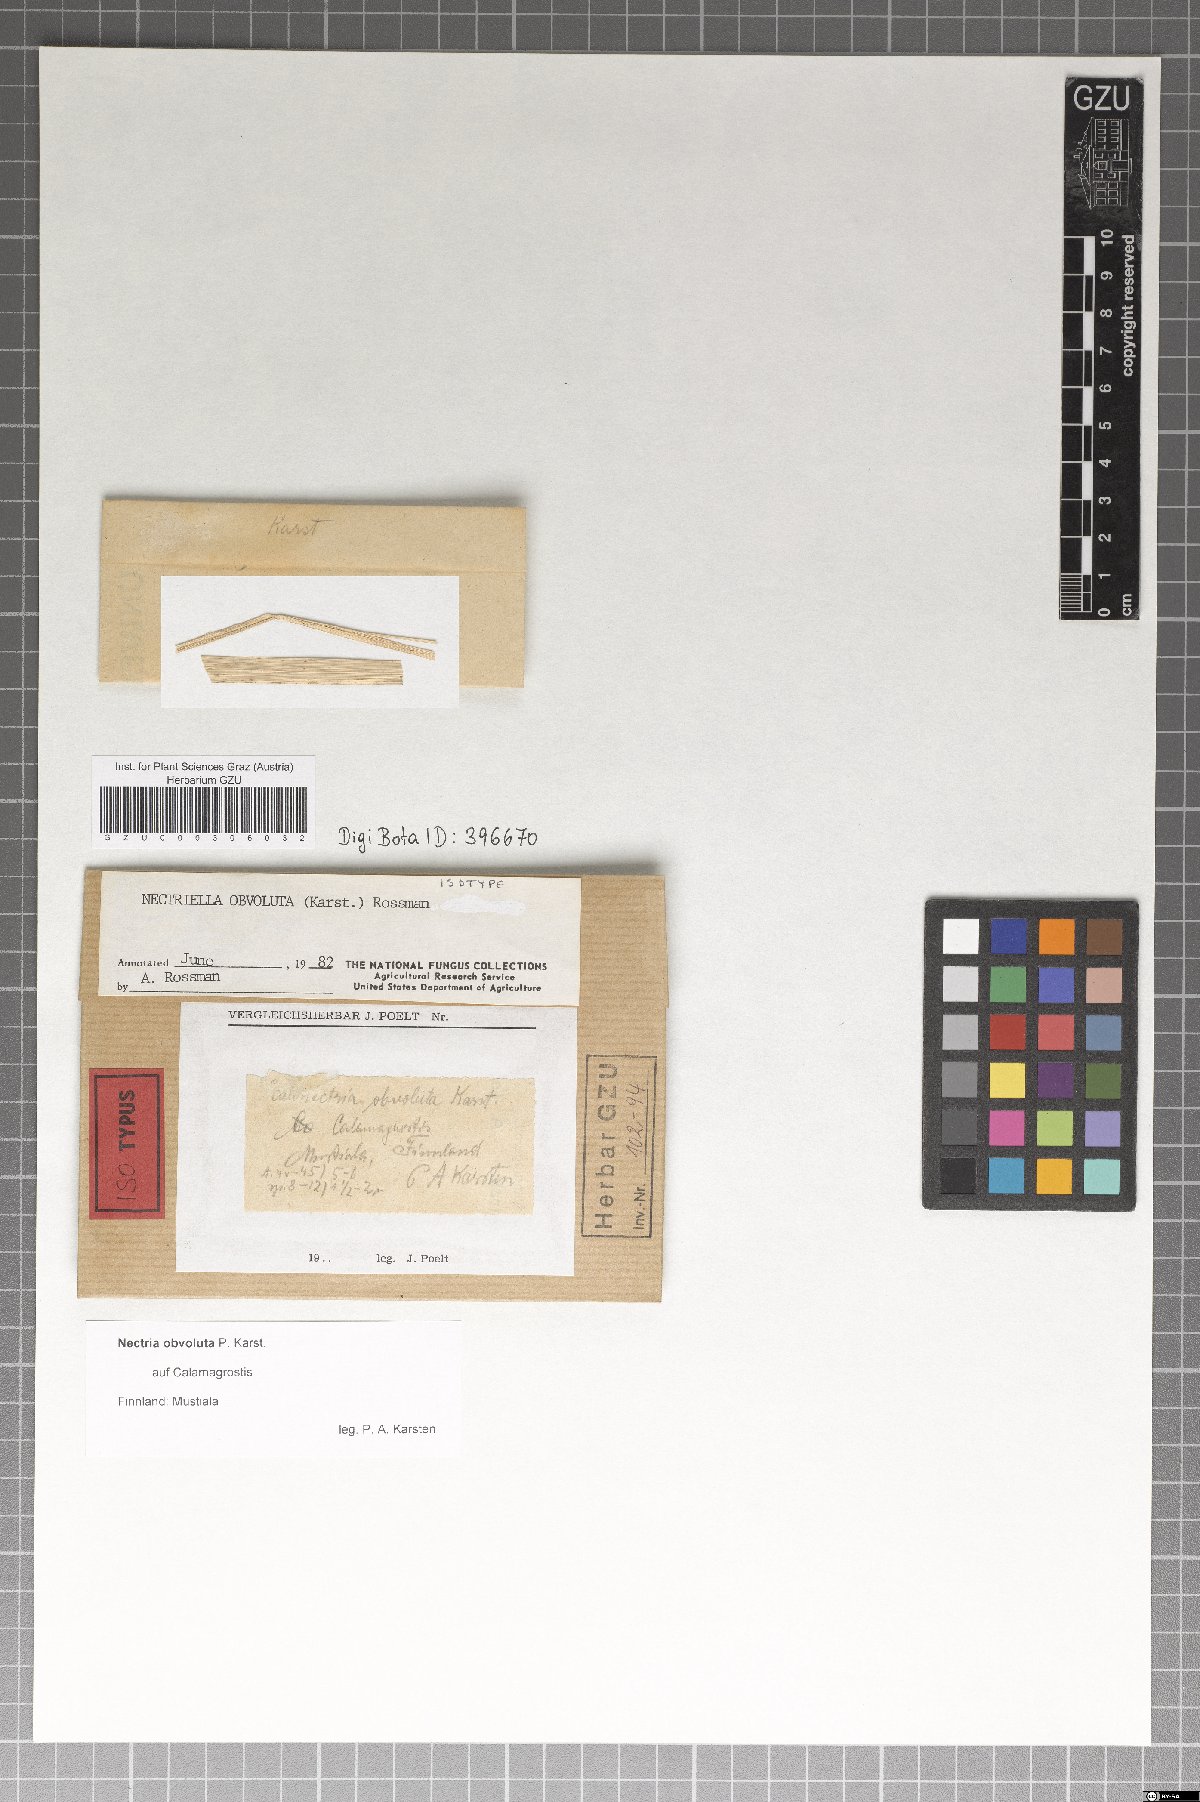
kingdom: Fungi
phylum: Ascomycota
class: Sordariomycetes
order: Hypocreales
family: Bionectriaceae
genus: Nectriella
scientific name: Nectriella obvoluta
